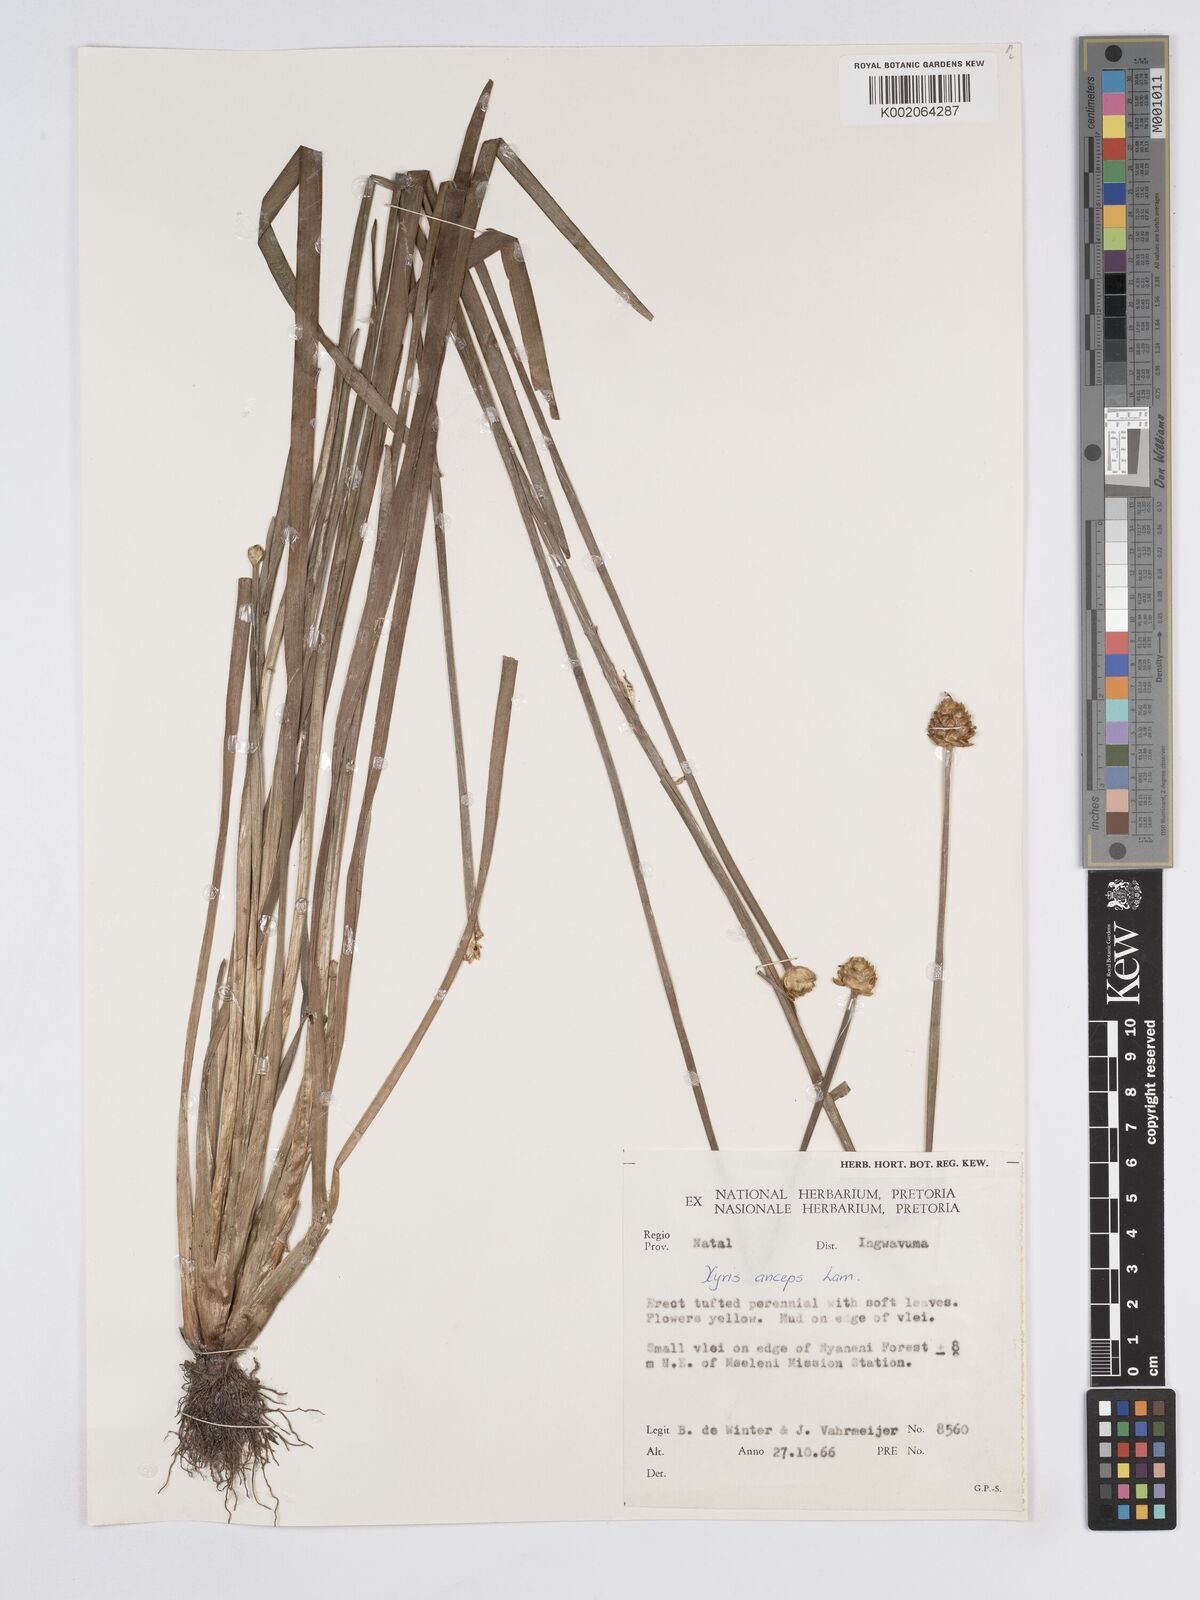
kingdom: Plantae
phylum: Tracheophyta
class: Liliopsida
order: Poales
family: Xyridaceae
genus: Xyris
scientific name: Xyris anceps
